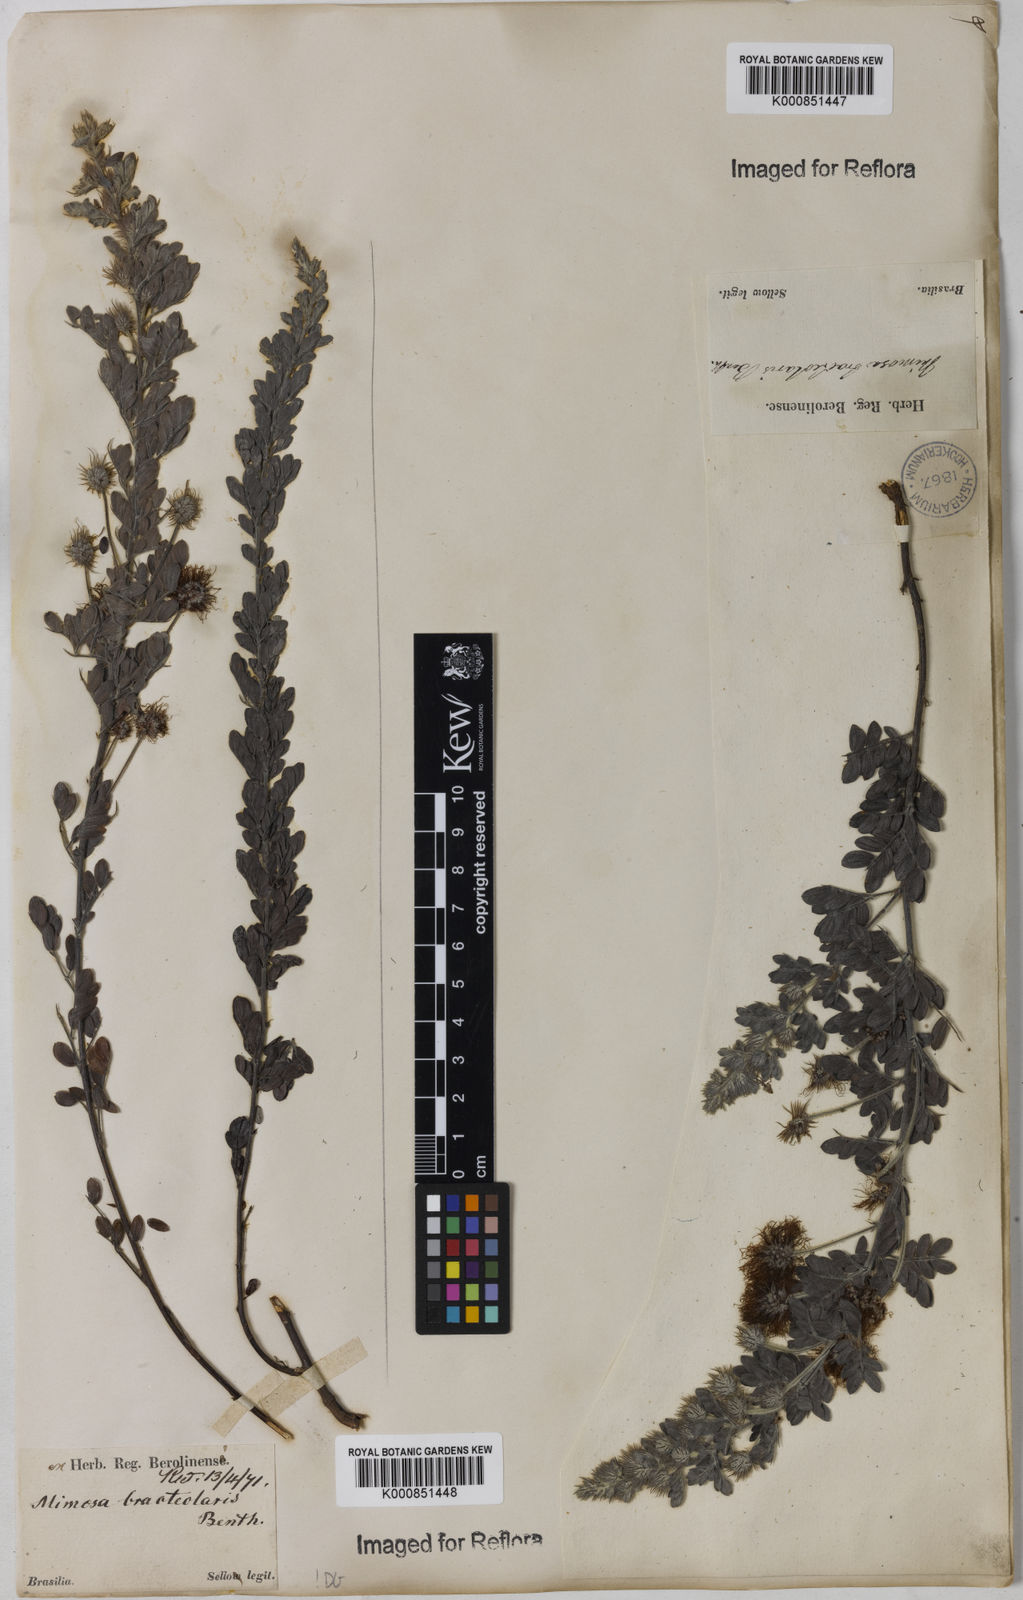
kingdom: Plantae
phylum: Tracheophyta
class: Magnoliopsida
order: Fabales
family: Fabaceae
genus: Mimosa
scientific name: Mimosa bracteolaris
